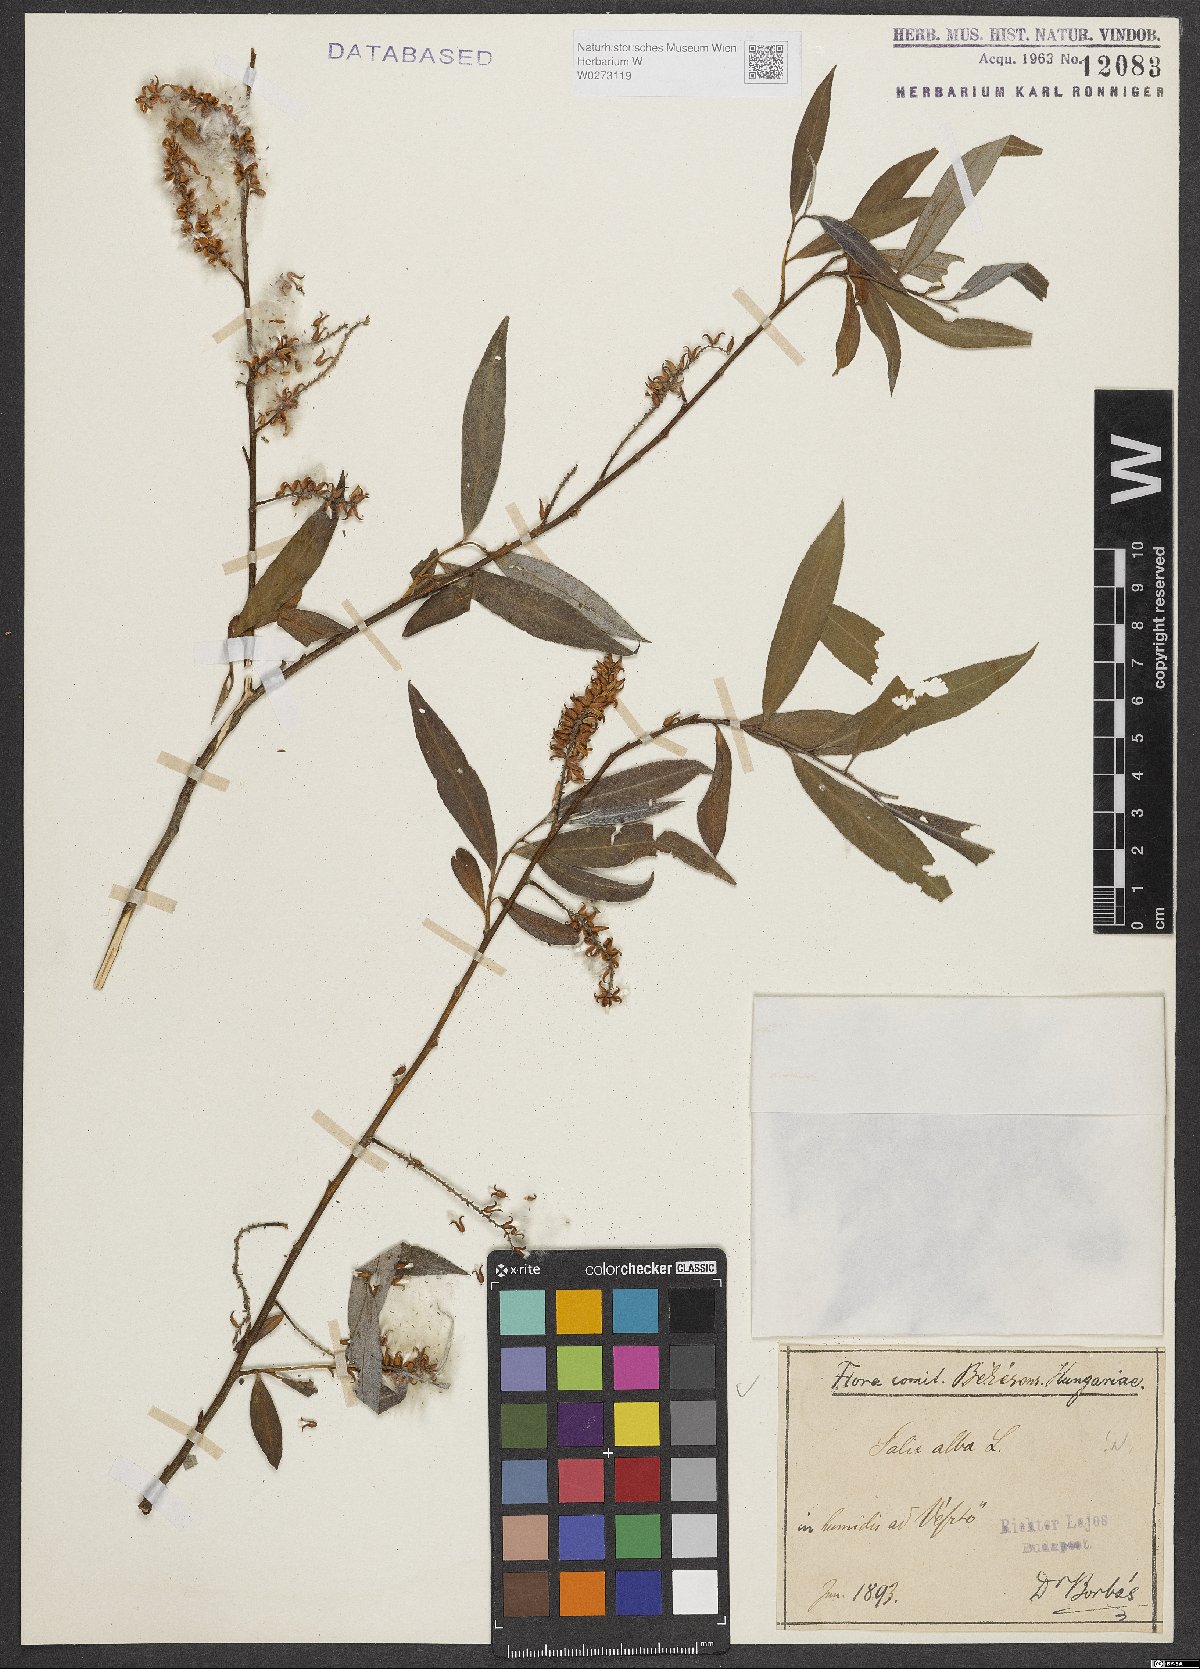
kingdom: Plantae
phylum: Tracheophyta
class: Magnoliopsida
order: Malpighiales
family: Salicaceae
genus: Salix
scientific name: Salix alba
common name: White willow
